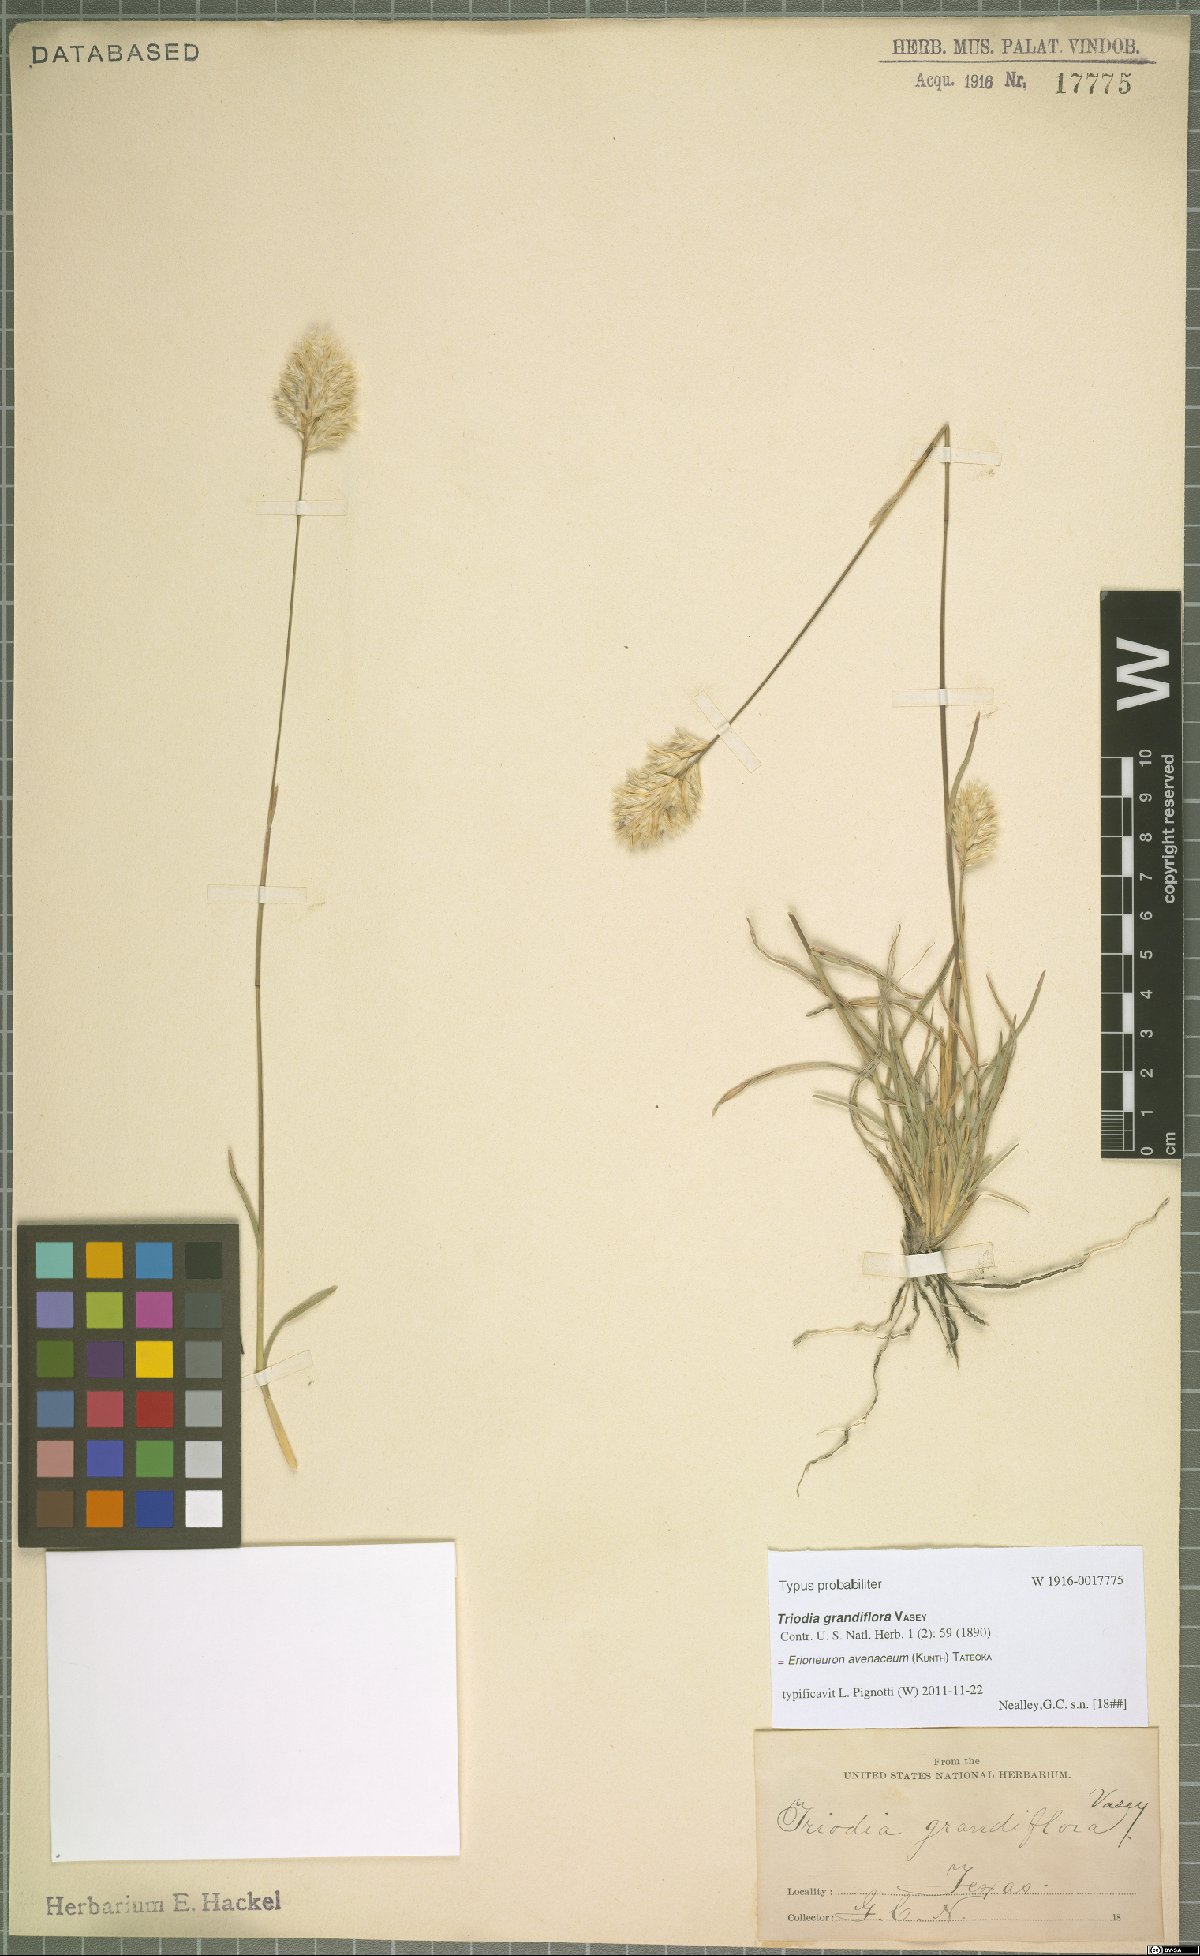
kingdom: Plantae
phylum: Tracheophyta
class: Liliopsida
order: Poales
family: Poaceae
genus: Erioneuron
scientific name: Erioneuron avenaceum
